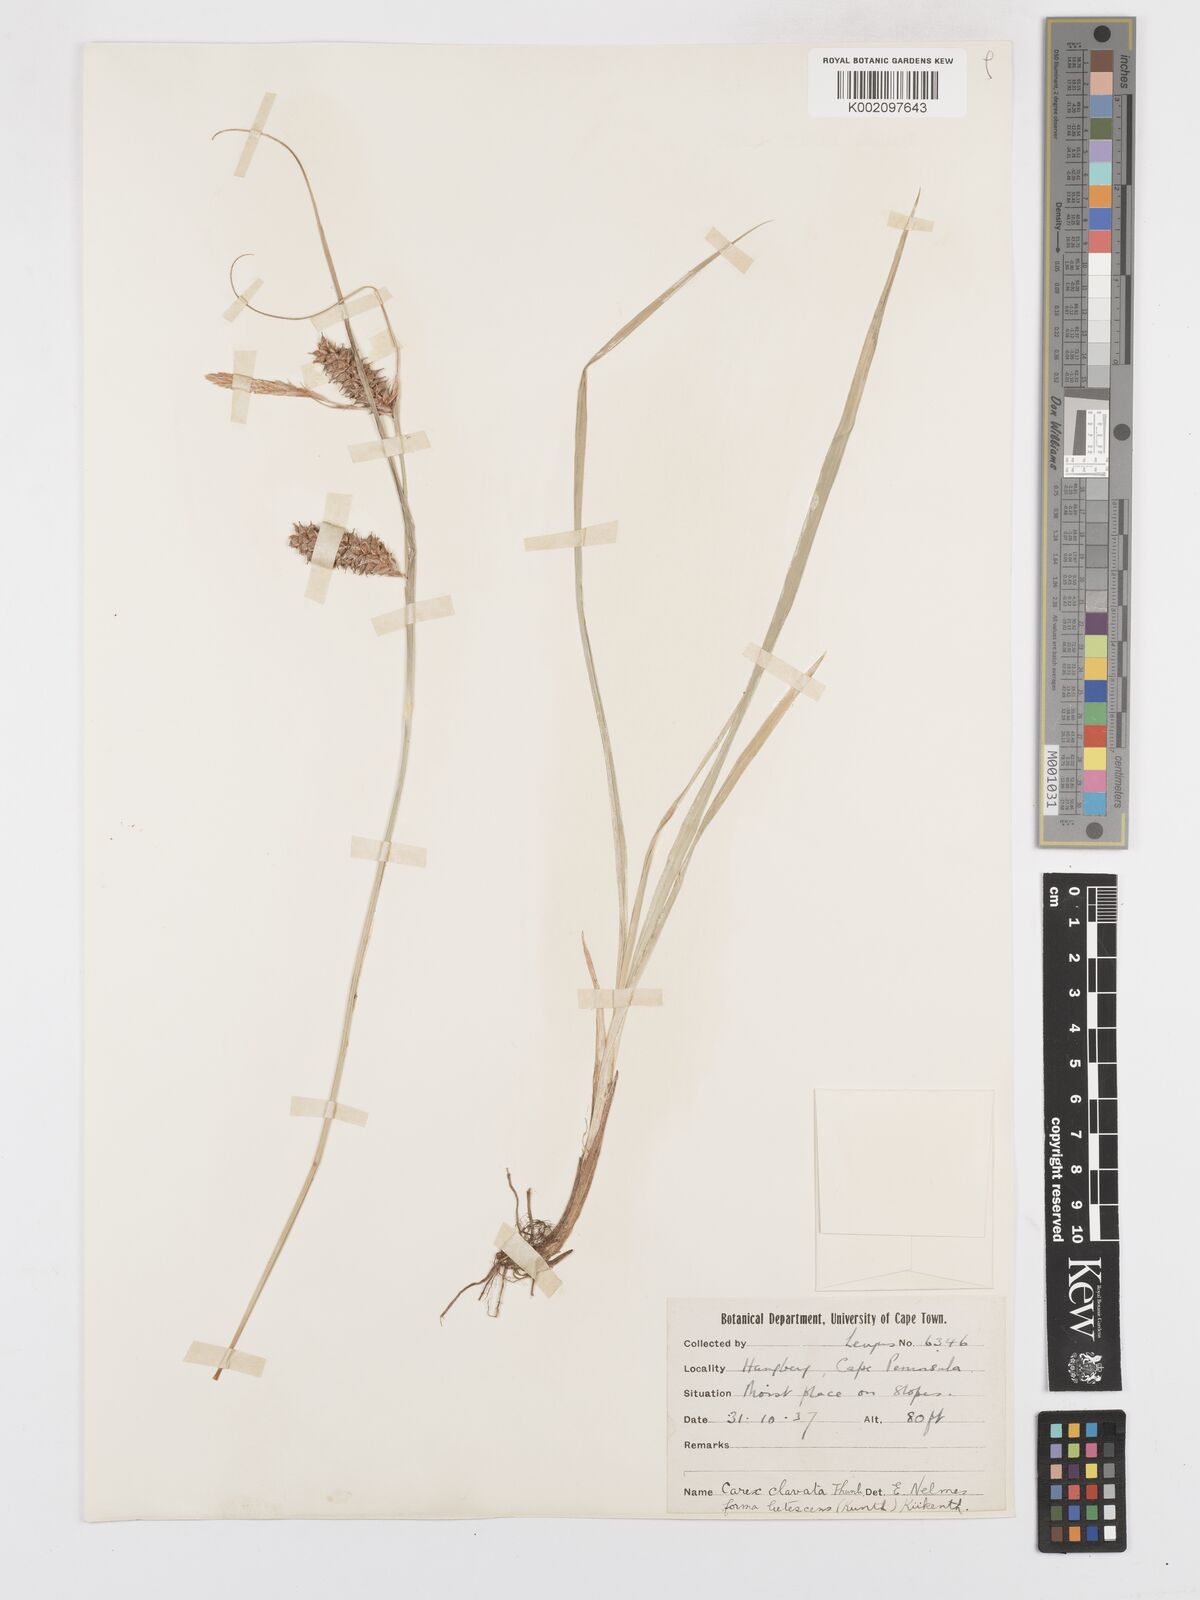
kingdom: Plantae
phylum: Tracheophyta
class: Liliopsida
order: Poales
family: Cyperaceae
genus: Carex
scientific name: Carex clavata
